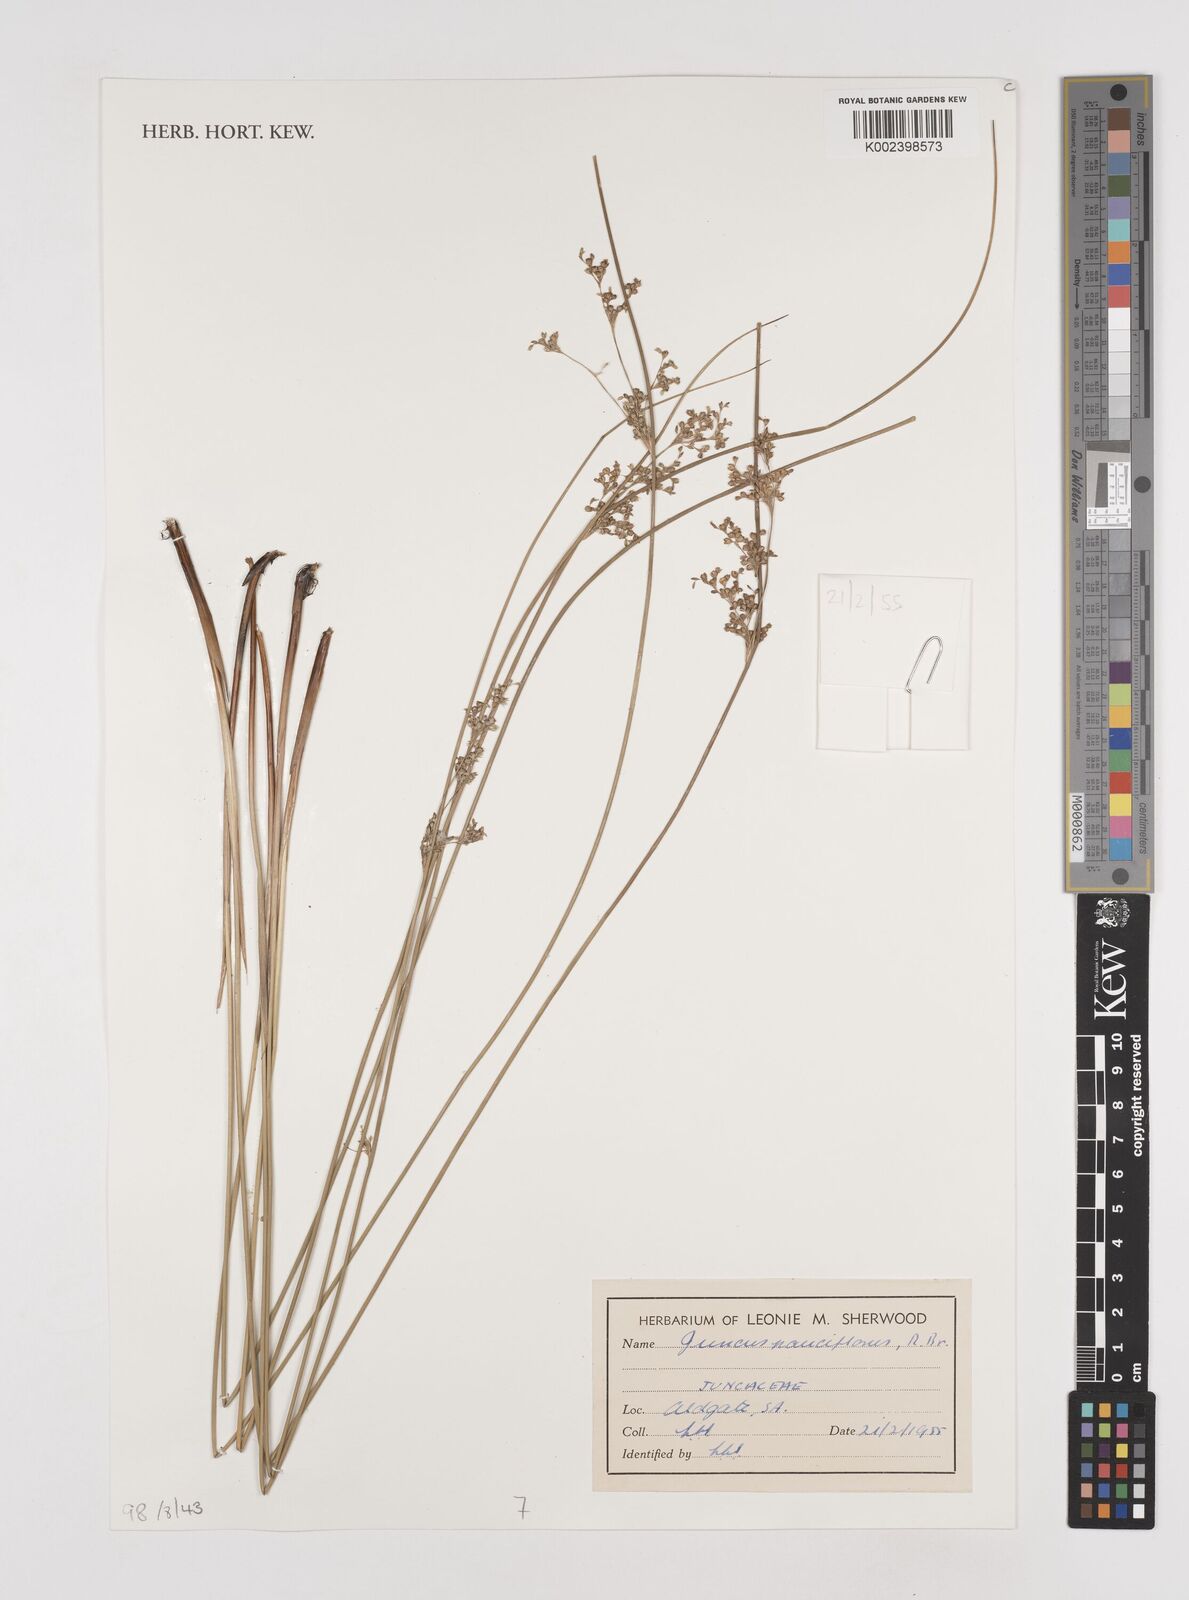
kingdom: Plantae
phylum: Tracheophyta
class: Liliopsida
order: Poales
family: Juncaceae
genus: Juncus
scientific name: Juncus pauciflorus
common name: Loose-flowered rush
